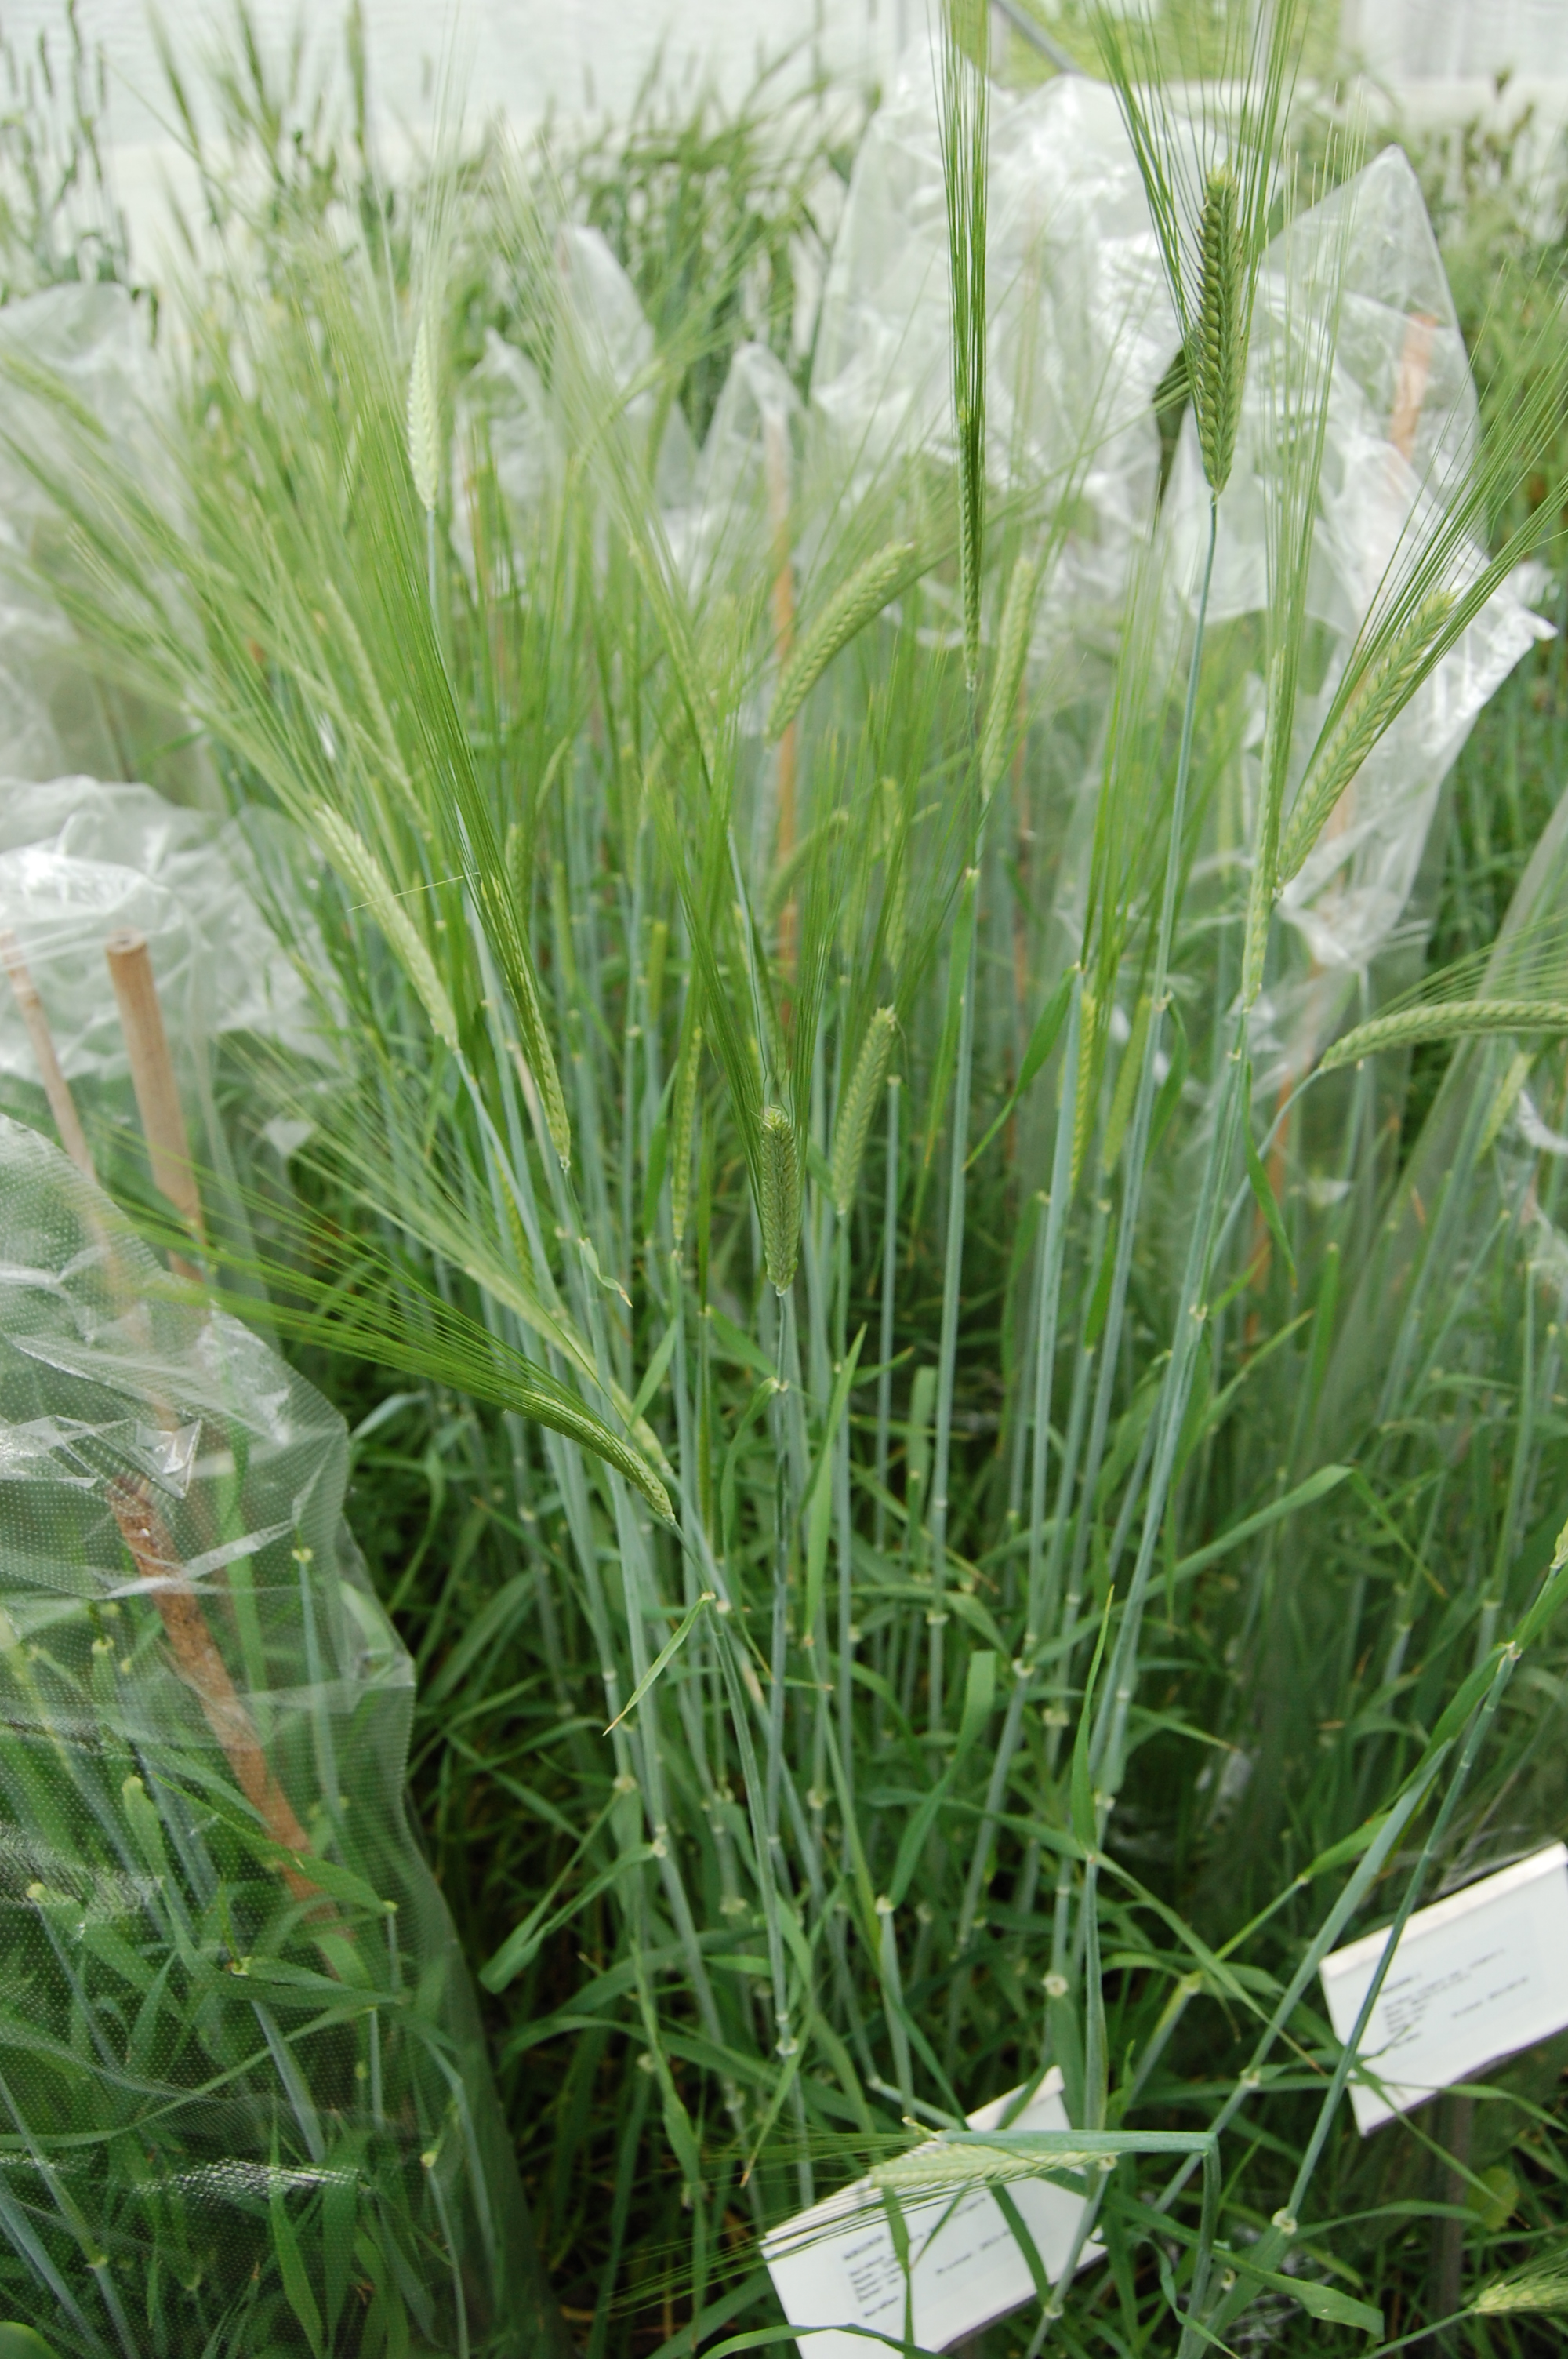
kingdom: Plantae
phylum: Tracheophyta
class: Liliopsida
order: Poales
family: Poaceae
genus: Hordeum
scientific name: Hordeum vulgare
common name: Common barley
